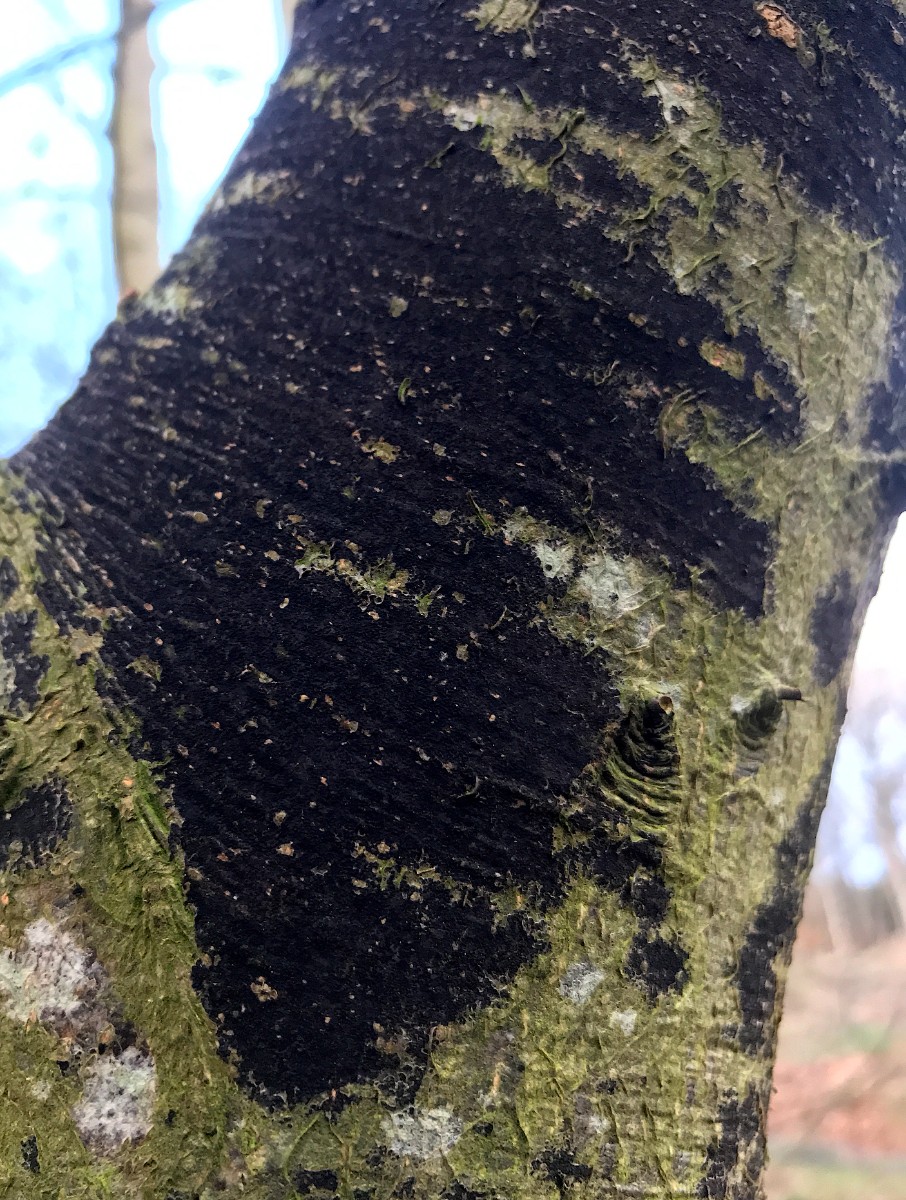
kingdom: Fungi
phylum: Ascomycota
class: Leotiomycetes
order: Rhytismatales
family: Ascodichaenaceae
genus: Ascodichaena
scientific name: Ascodichaena rugosa
